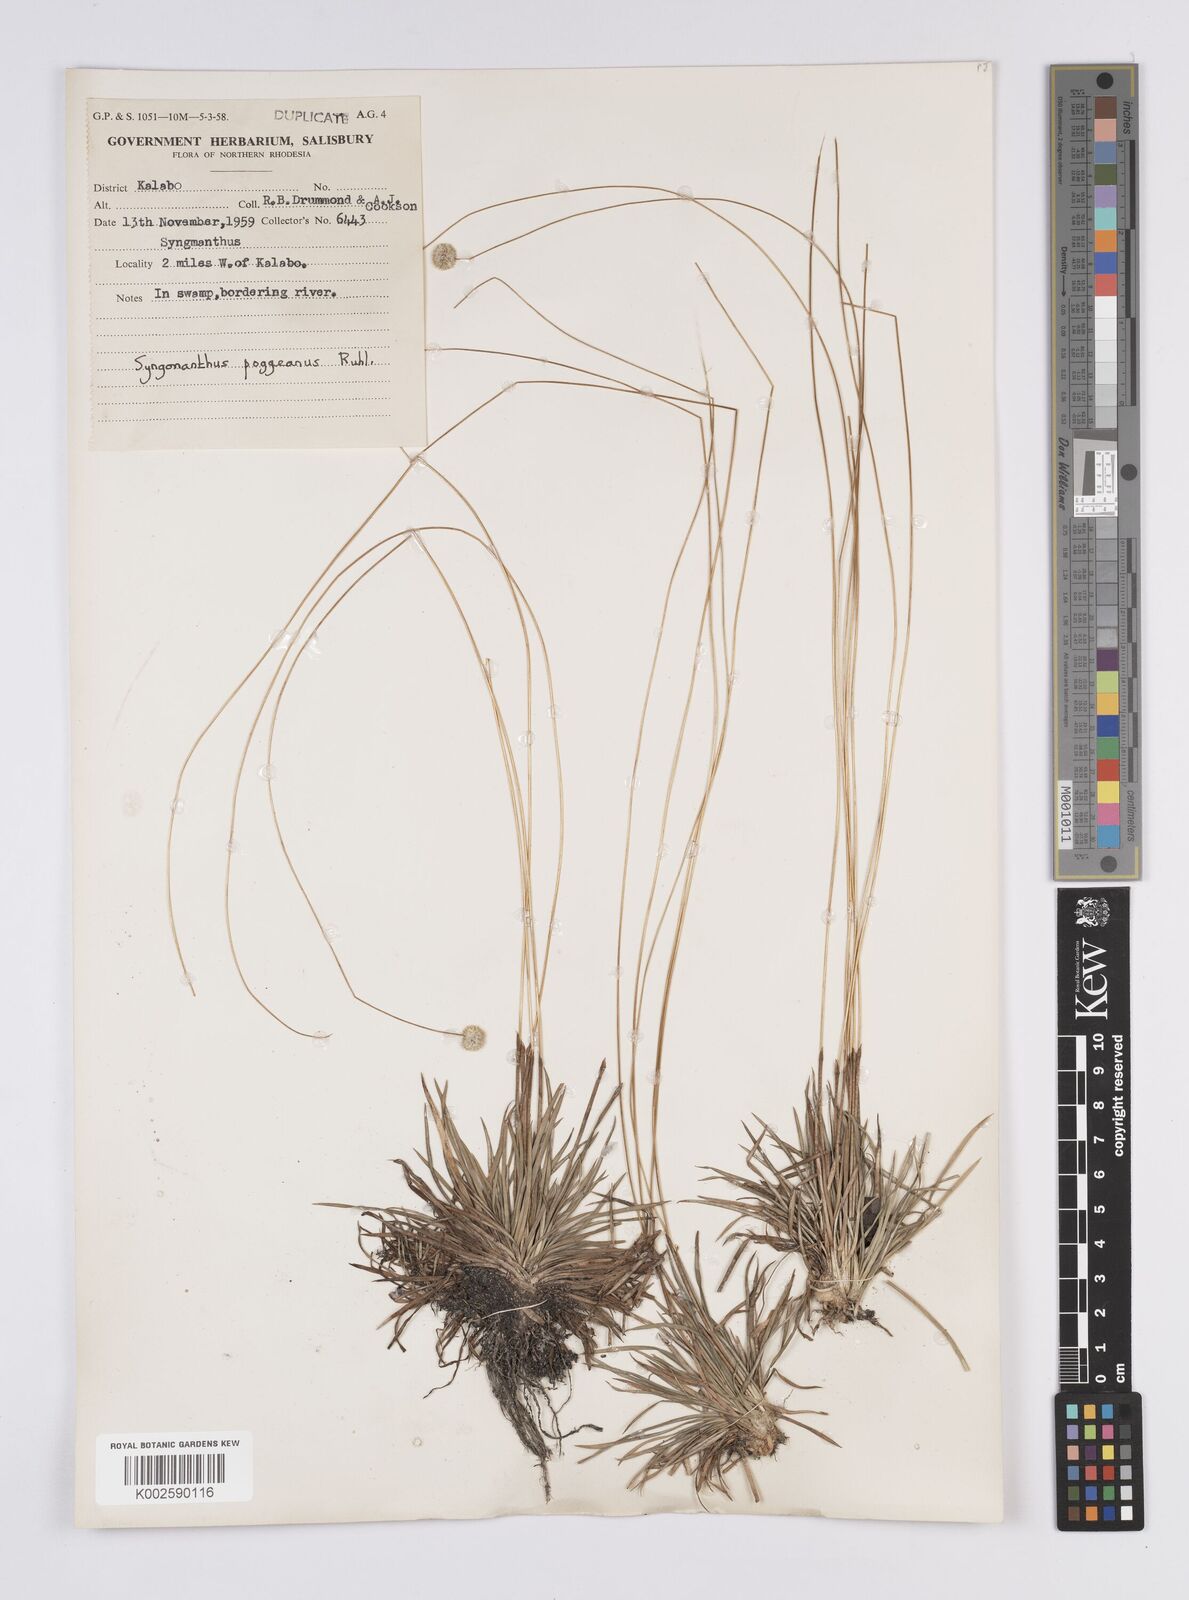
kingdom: Plantae
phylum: Tracheophyta
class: Liliopsida
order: Poales
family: Eriocaulaceae
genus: Syngonanthus
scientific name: Syngonanthus poggeanus
